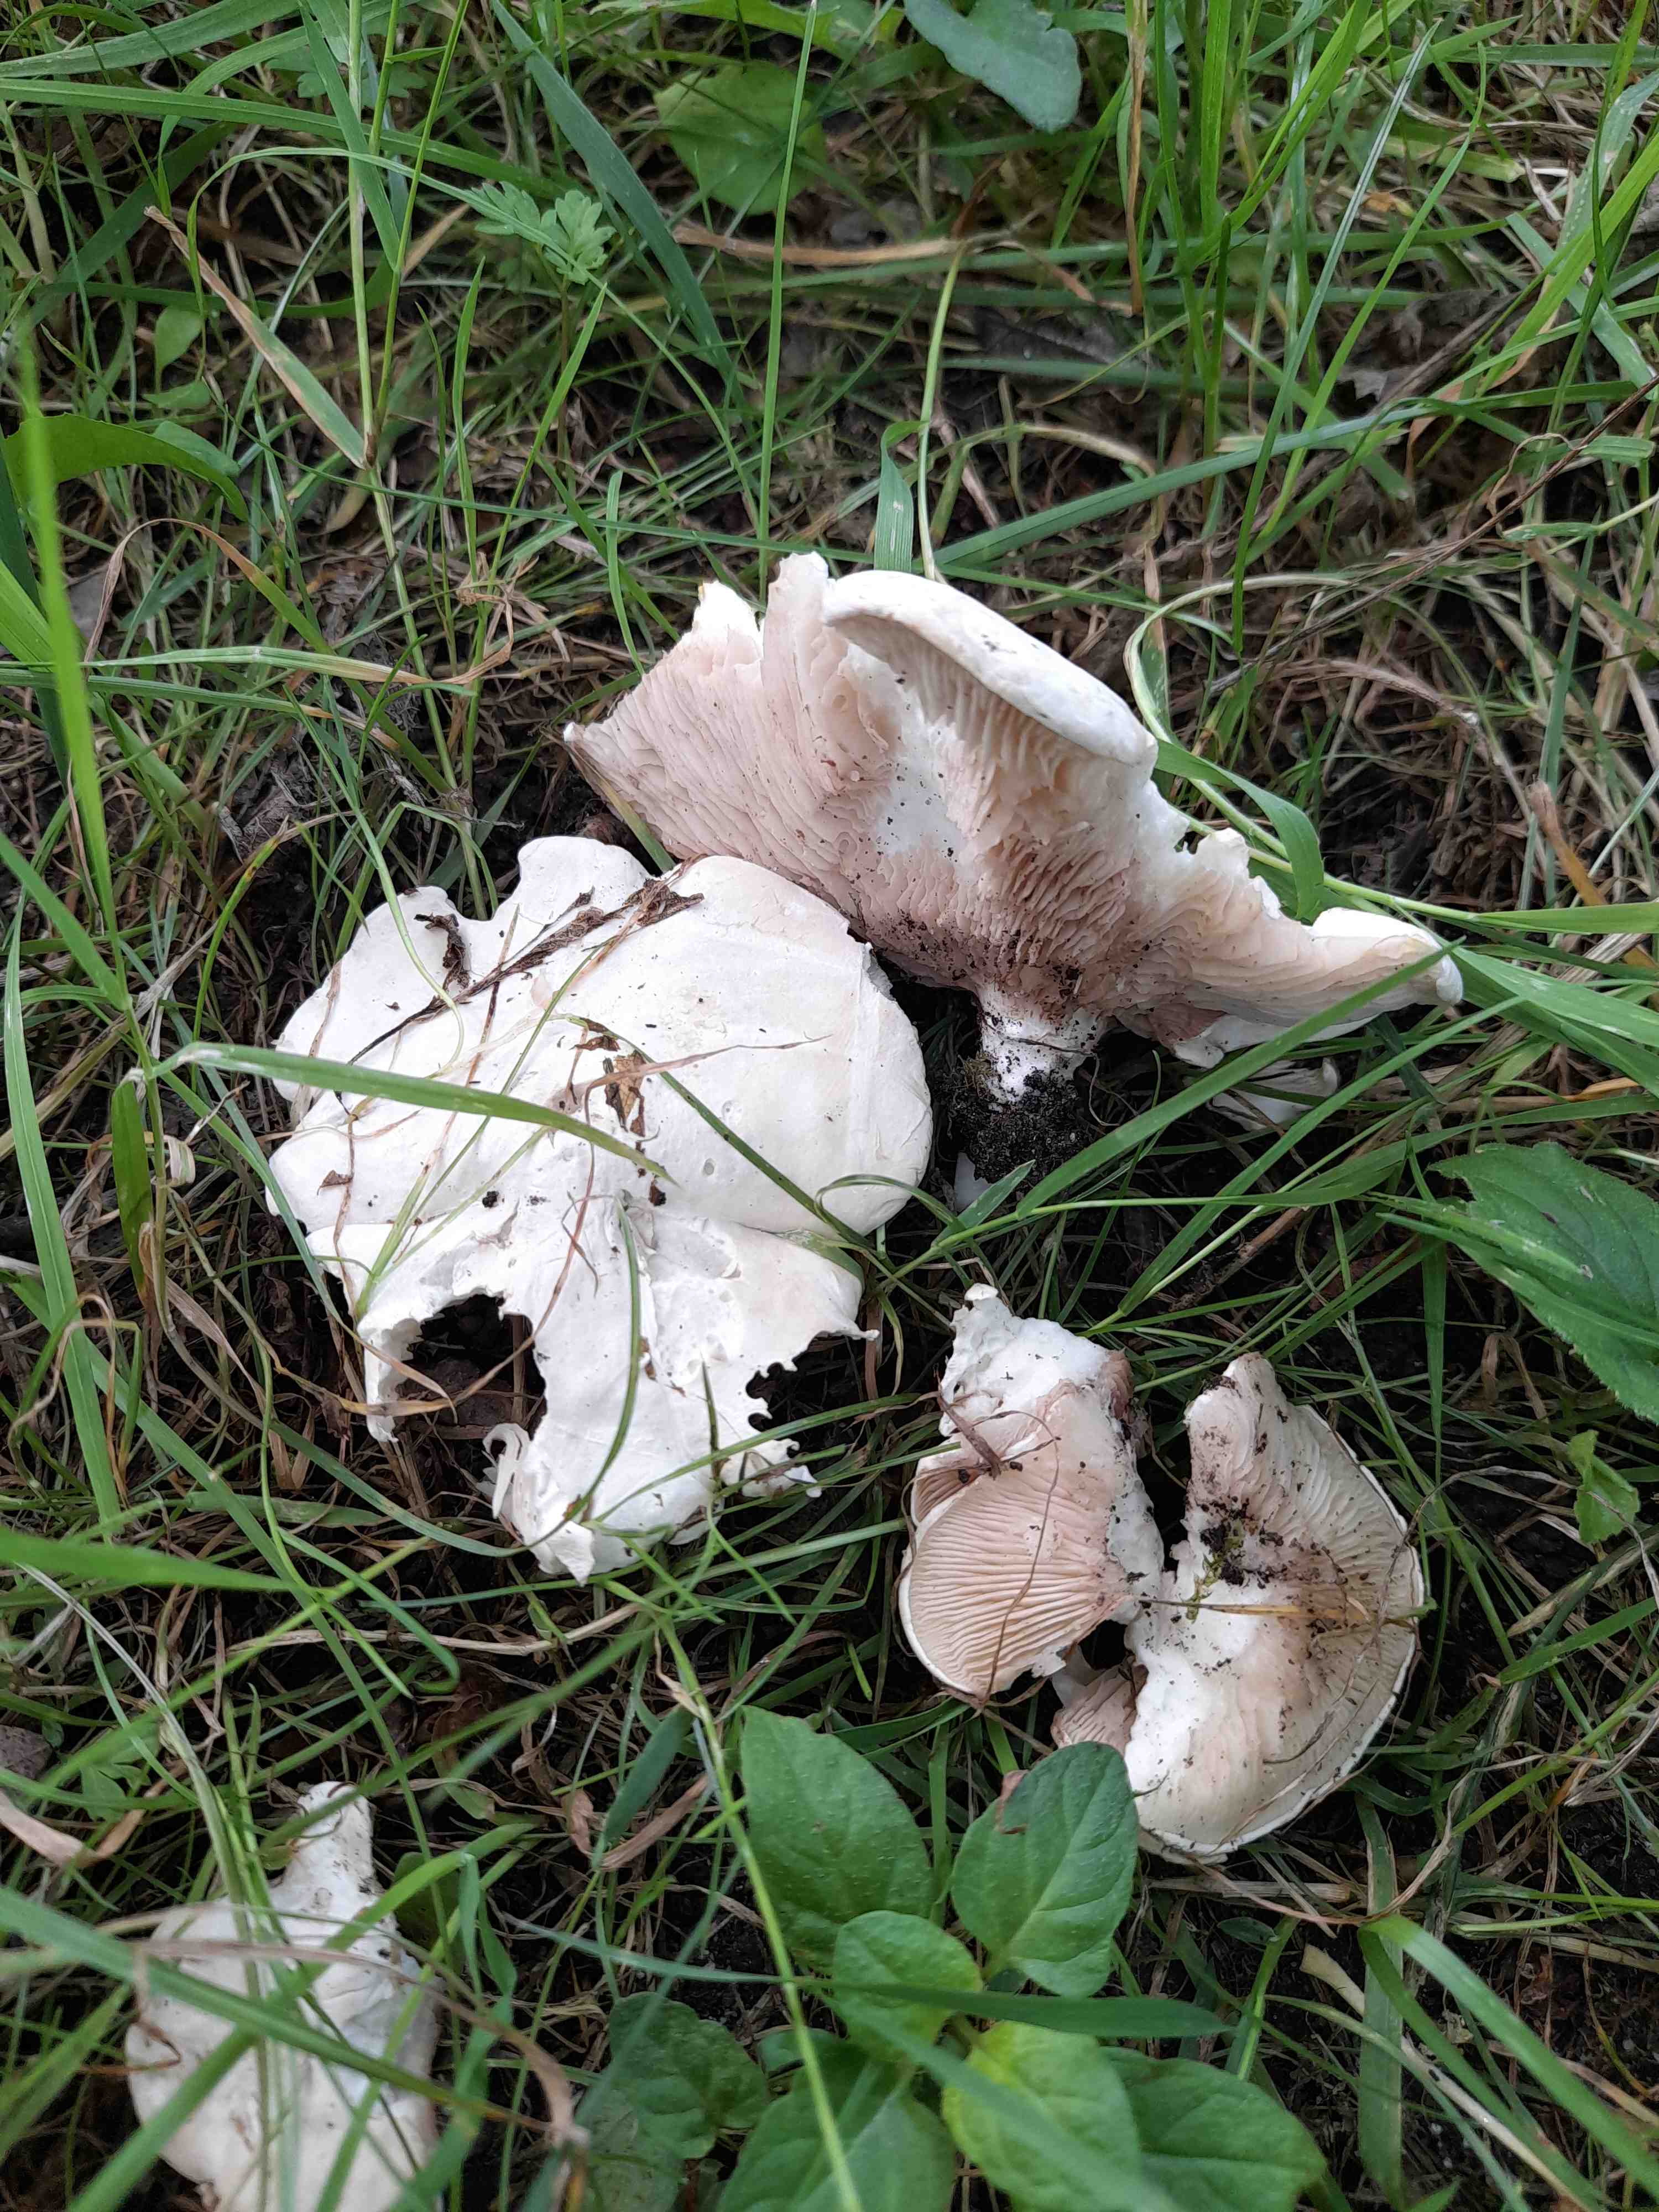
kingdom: Fungi
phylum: Basidiomycota
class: Agaricomycetes
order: Agaricales
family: Entolomataceae
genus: Clitopilus
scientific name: Clitopilus prunulus
